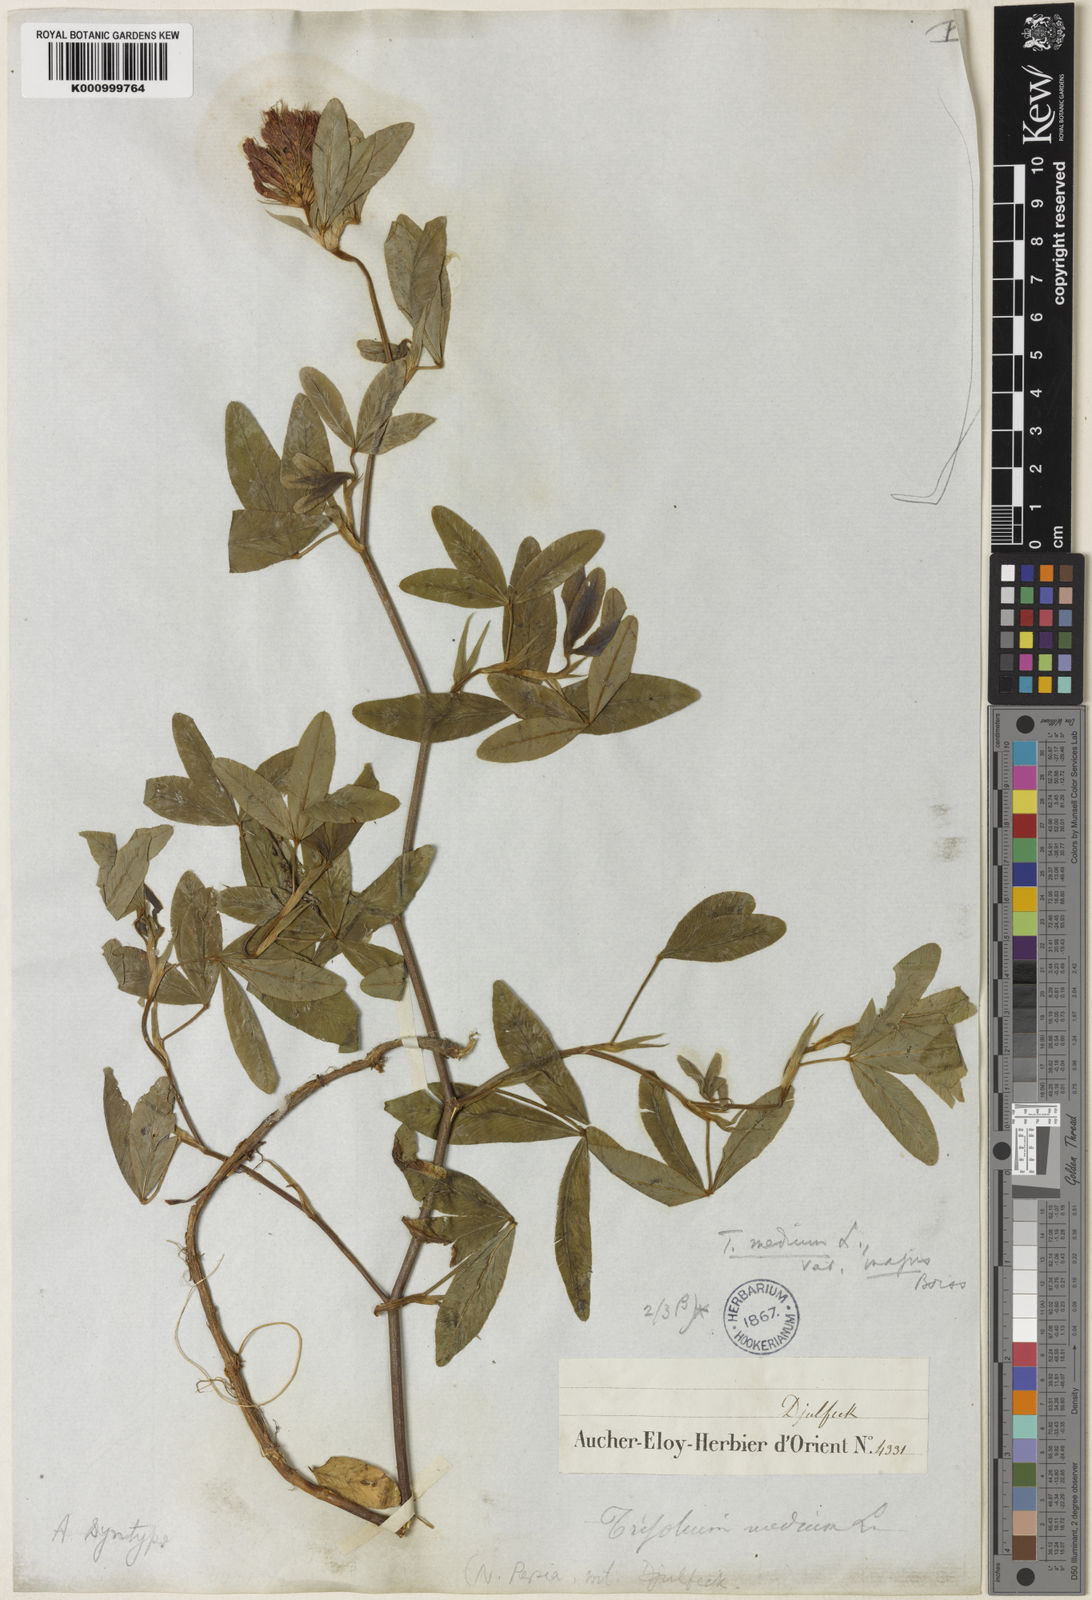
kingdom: Plantae
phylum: Tracheophyta
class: Magnoliopsida
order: Fabales
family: Fabaceae
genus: Trifolium
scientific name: Trifolium medium
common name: Zigzag clover
